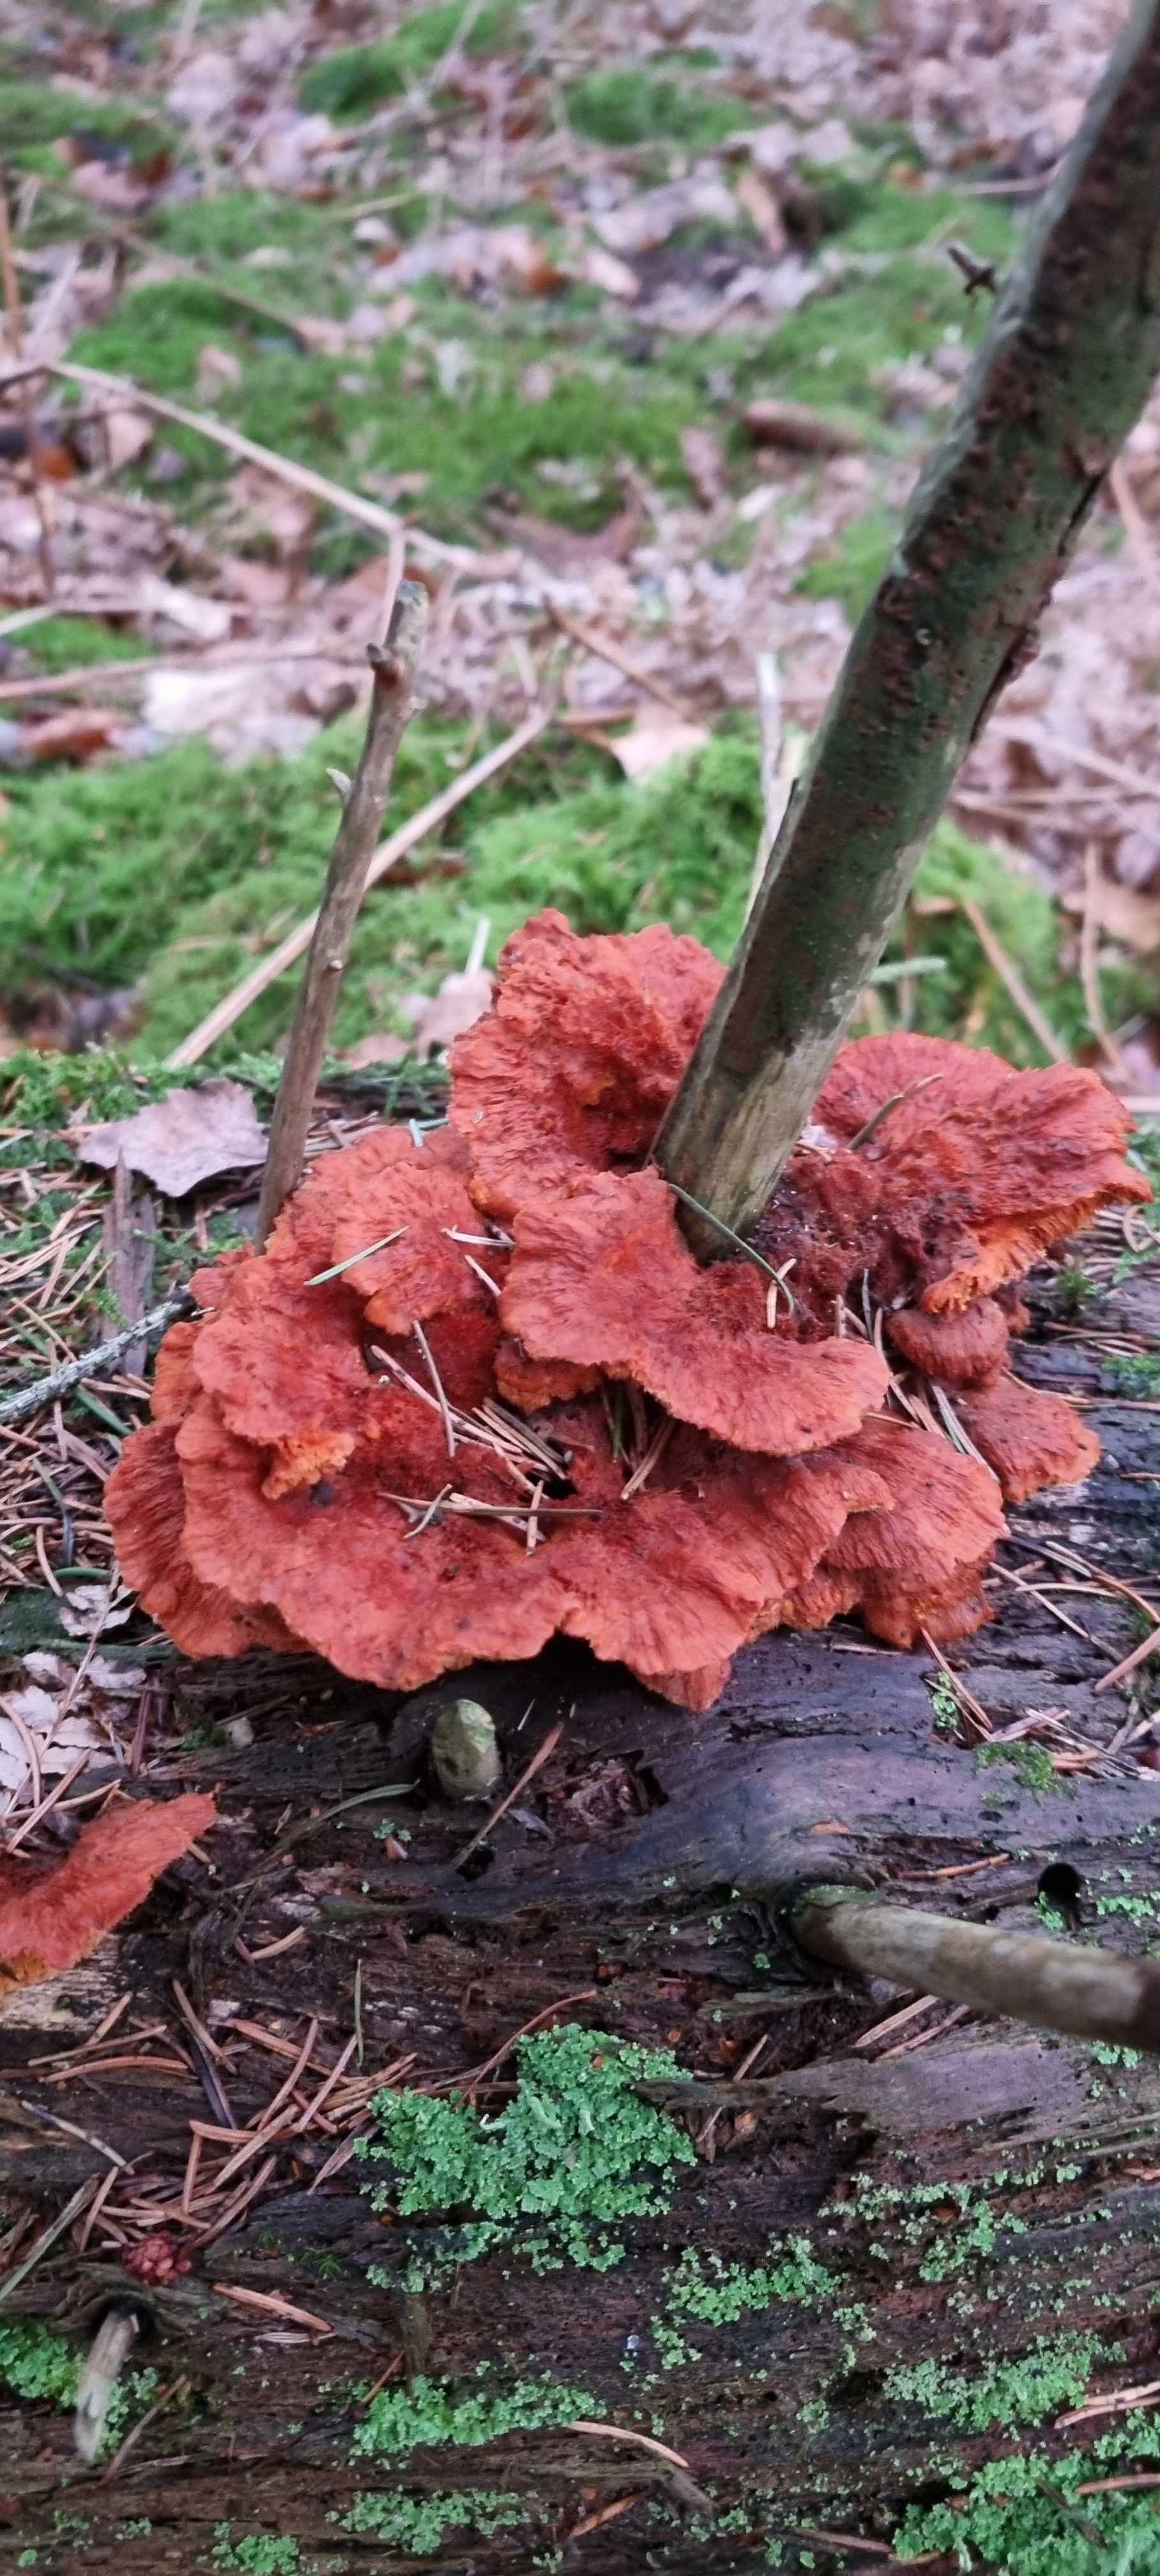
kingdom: Fungi
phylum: Basidiomycota
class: Agaricomycetes
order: Polyporales
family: Pycnoporellaceae
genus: Pycnoporellus
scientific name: Pycnoporellus fulgens
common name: flammeporesvamp
